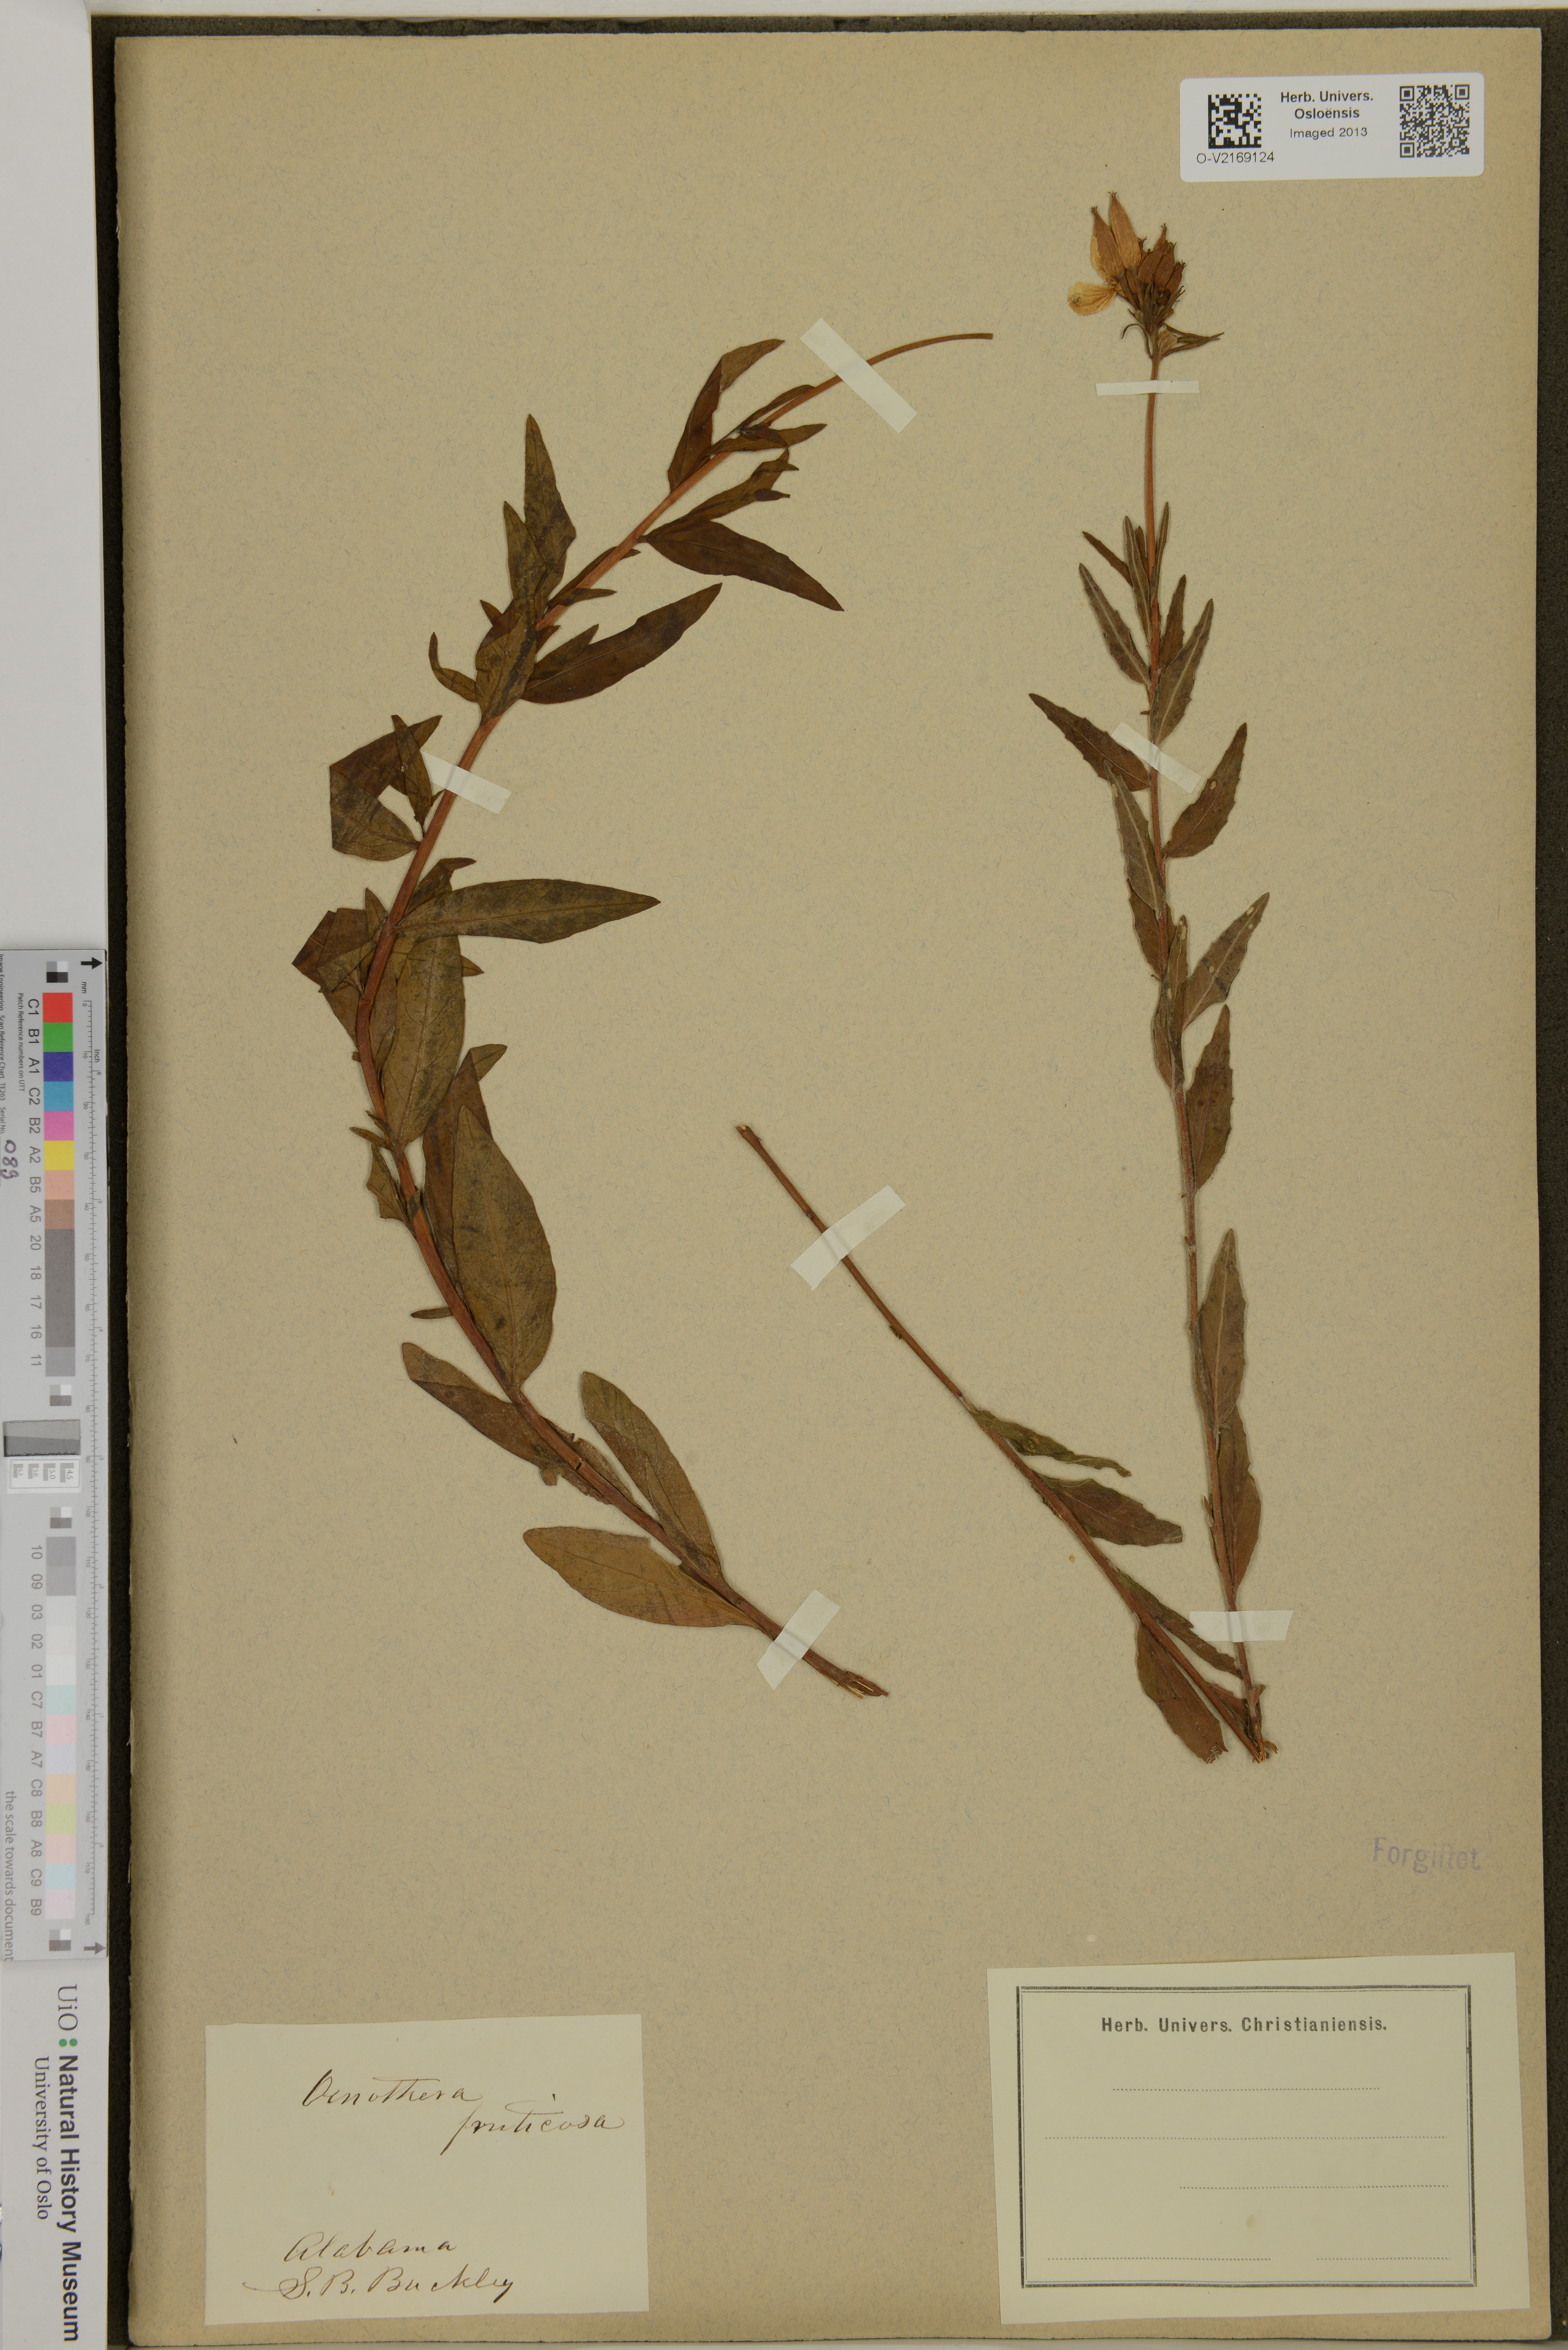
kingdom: Plantae
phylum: Tracheophyta
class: Magnoliopsida
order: Myrtales
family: Onagraceae
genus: Oenothera
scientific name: Oenothera fruticosa
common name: Southern sundrops
